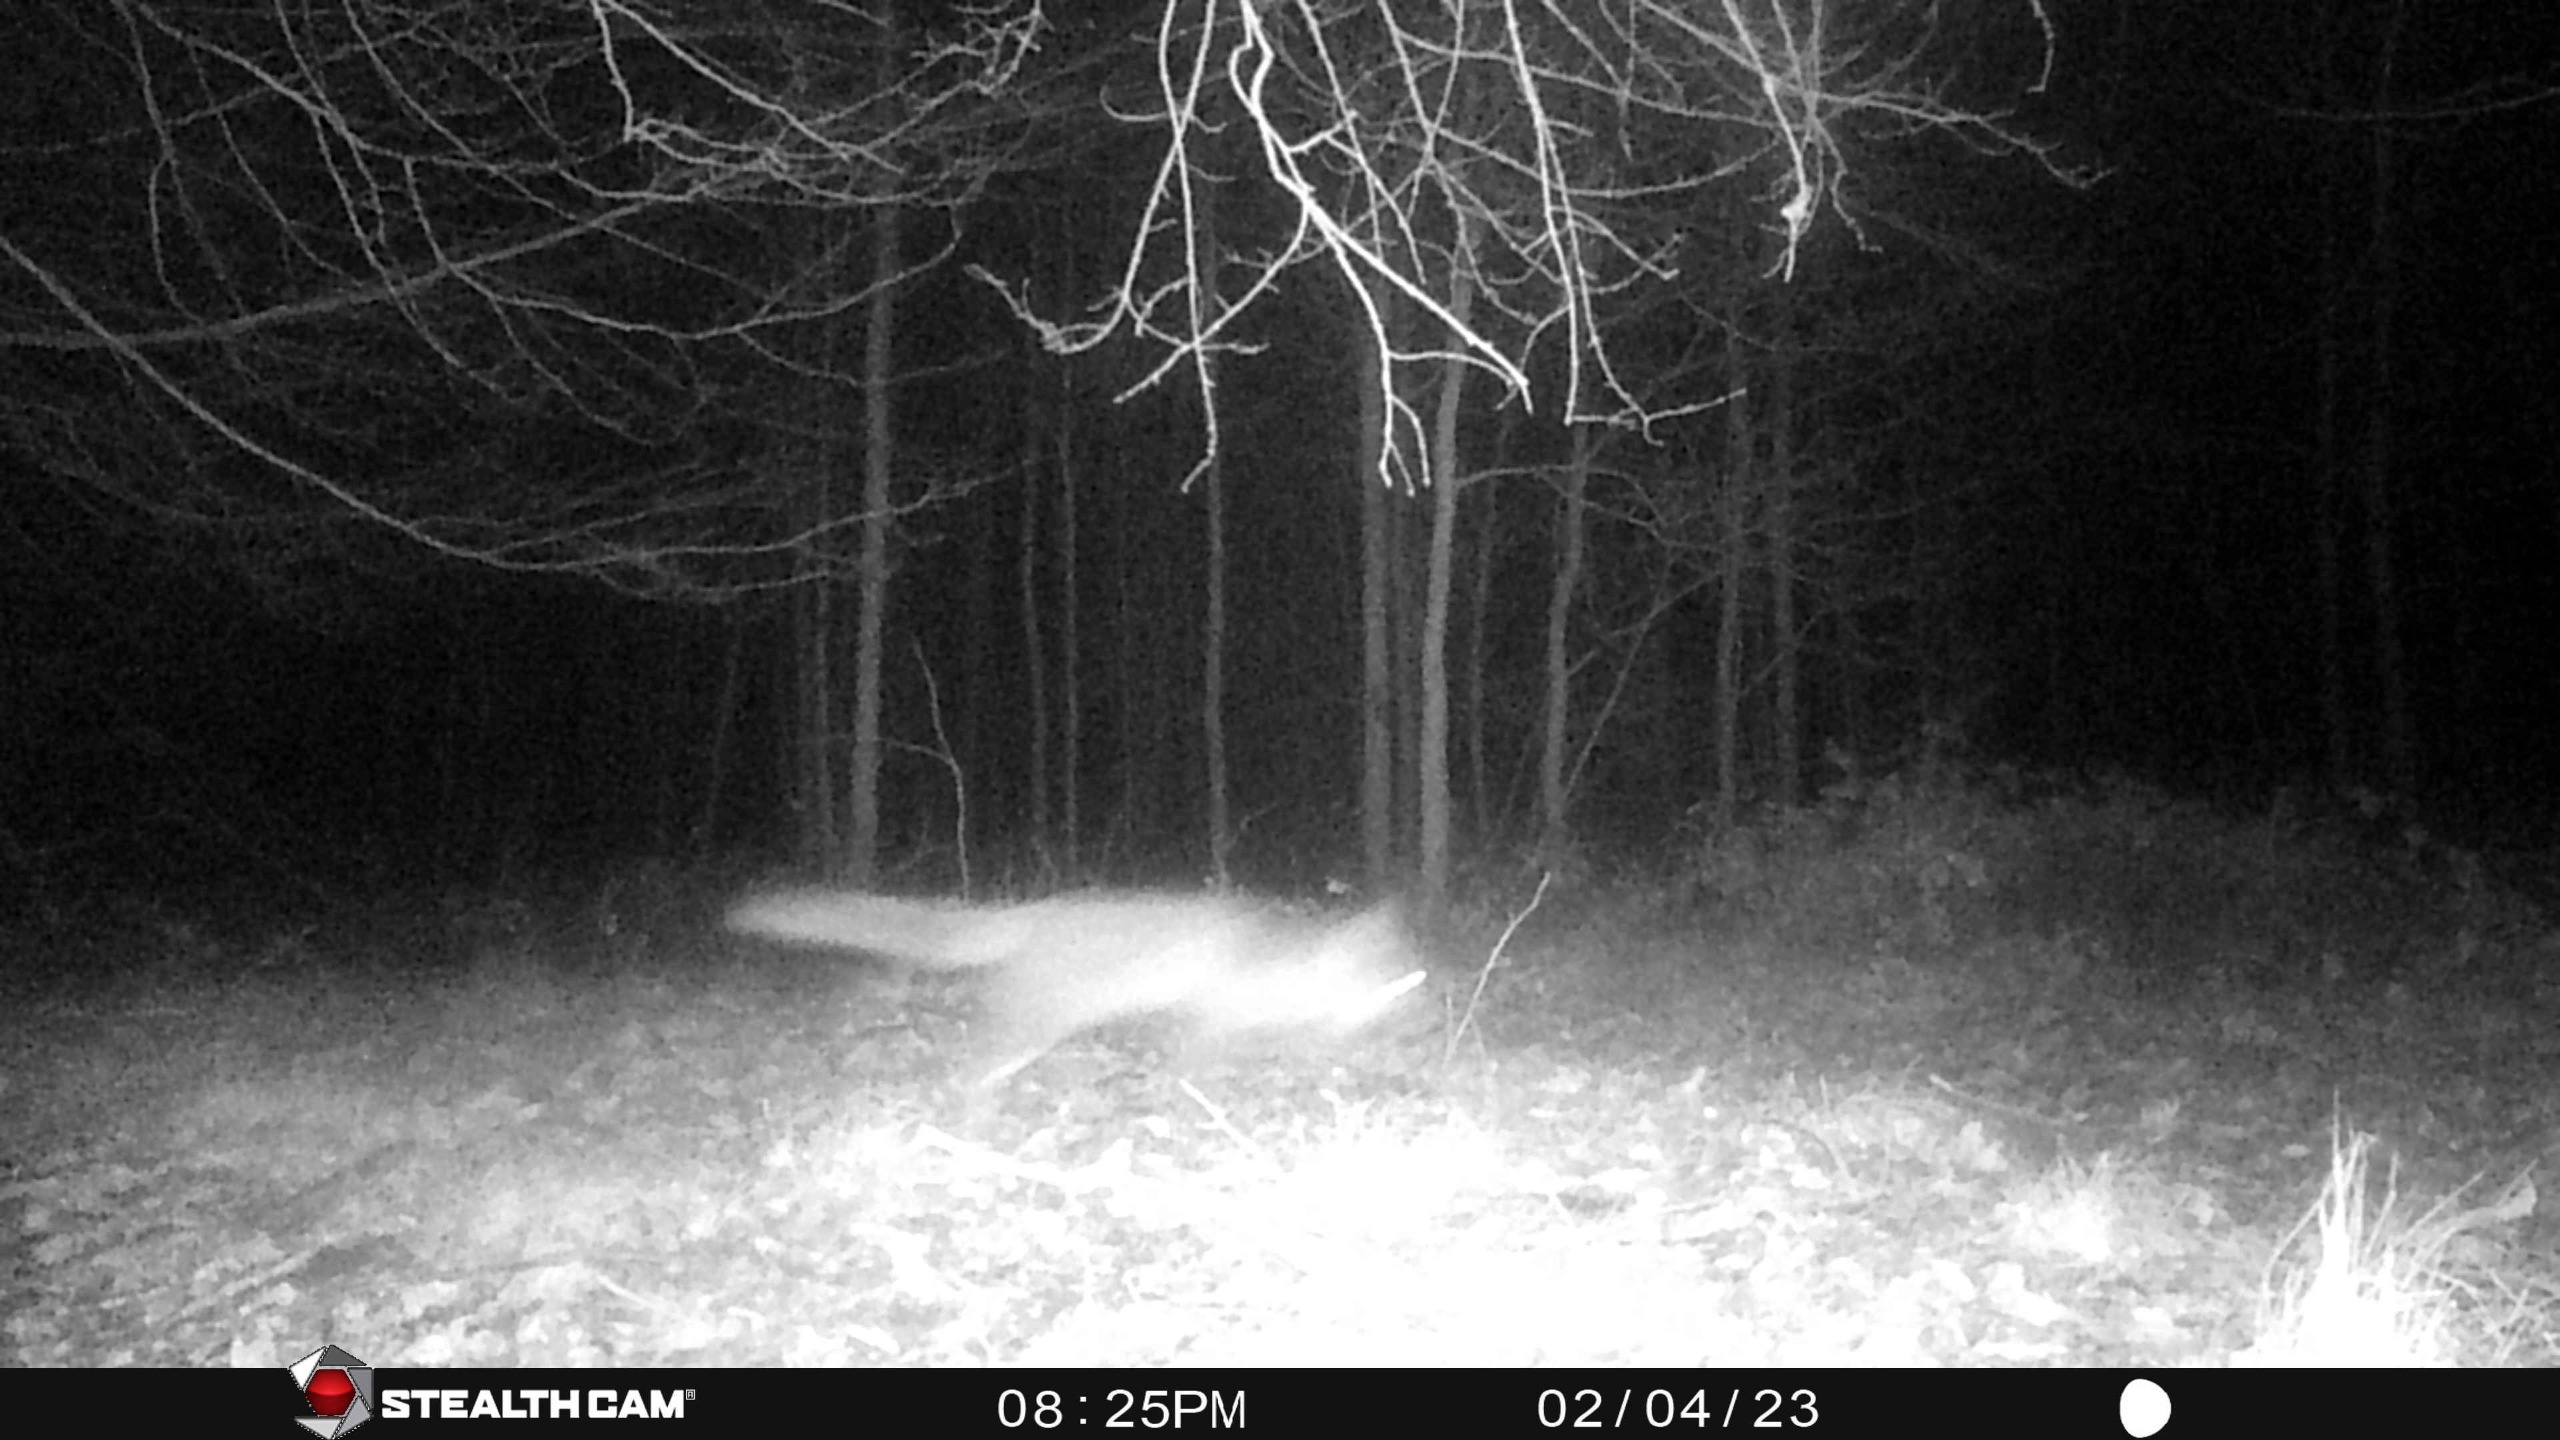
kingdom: Animalia
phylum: Chordata
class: Mammalia
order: Carnivora
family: Canidae
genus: Vulpes
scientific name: Vulpes vulpes
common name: Ræv
